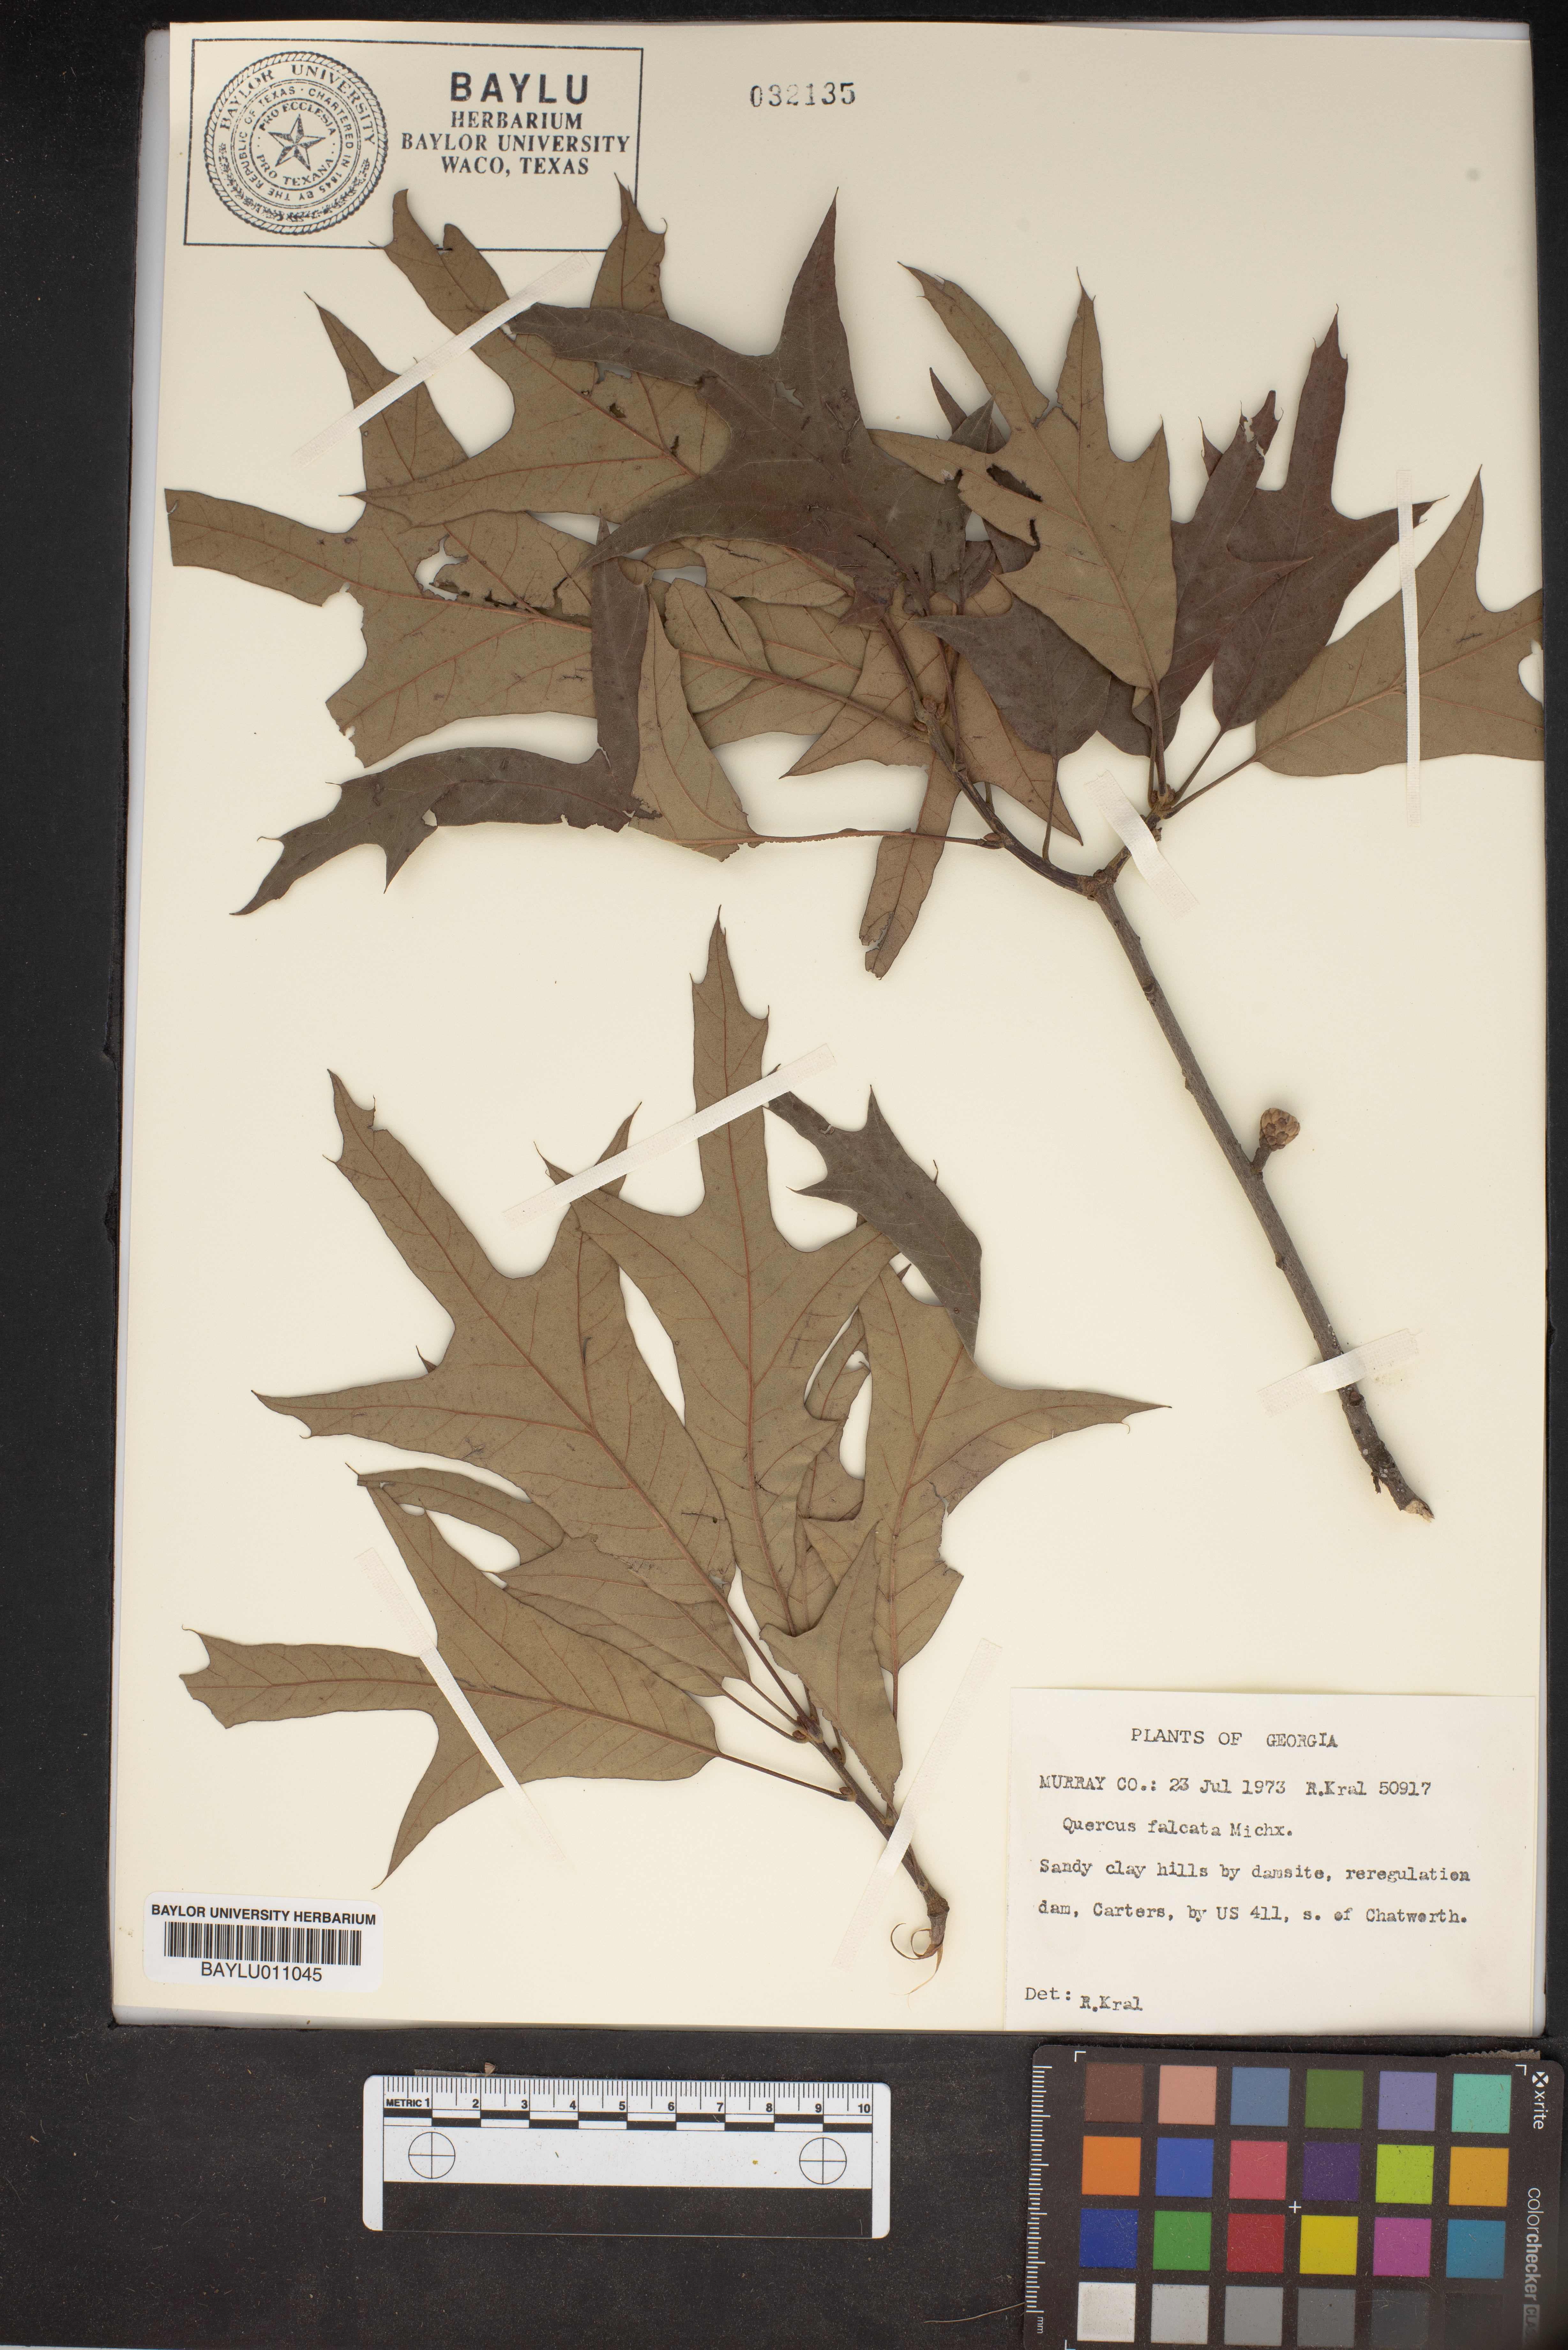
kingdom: Plantae
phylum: Tracheophyta
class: Magnoliopsida
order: Fagales
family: Fagaceae
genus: Quercus
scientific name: Quercus falcata
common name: Southern red oak
